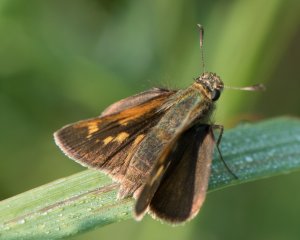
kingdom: Animalia
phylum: Arthropoda
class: Insecta
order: Lepidoptera
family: Hesperiidae
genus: Polites
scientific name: Polites
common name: Crossline Skipper
